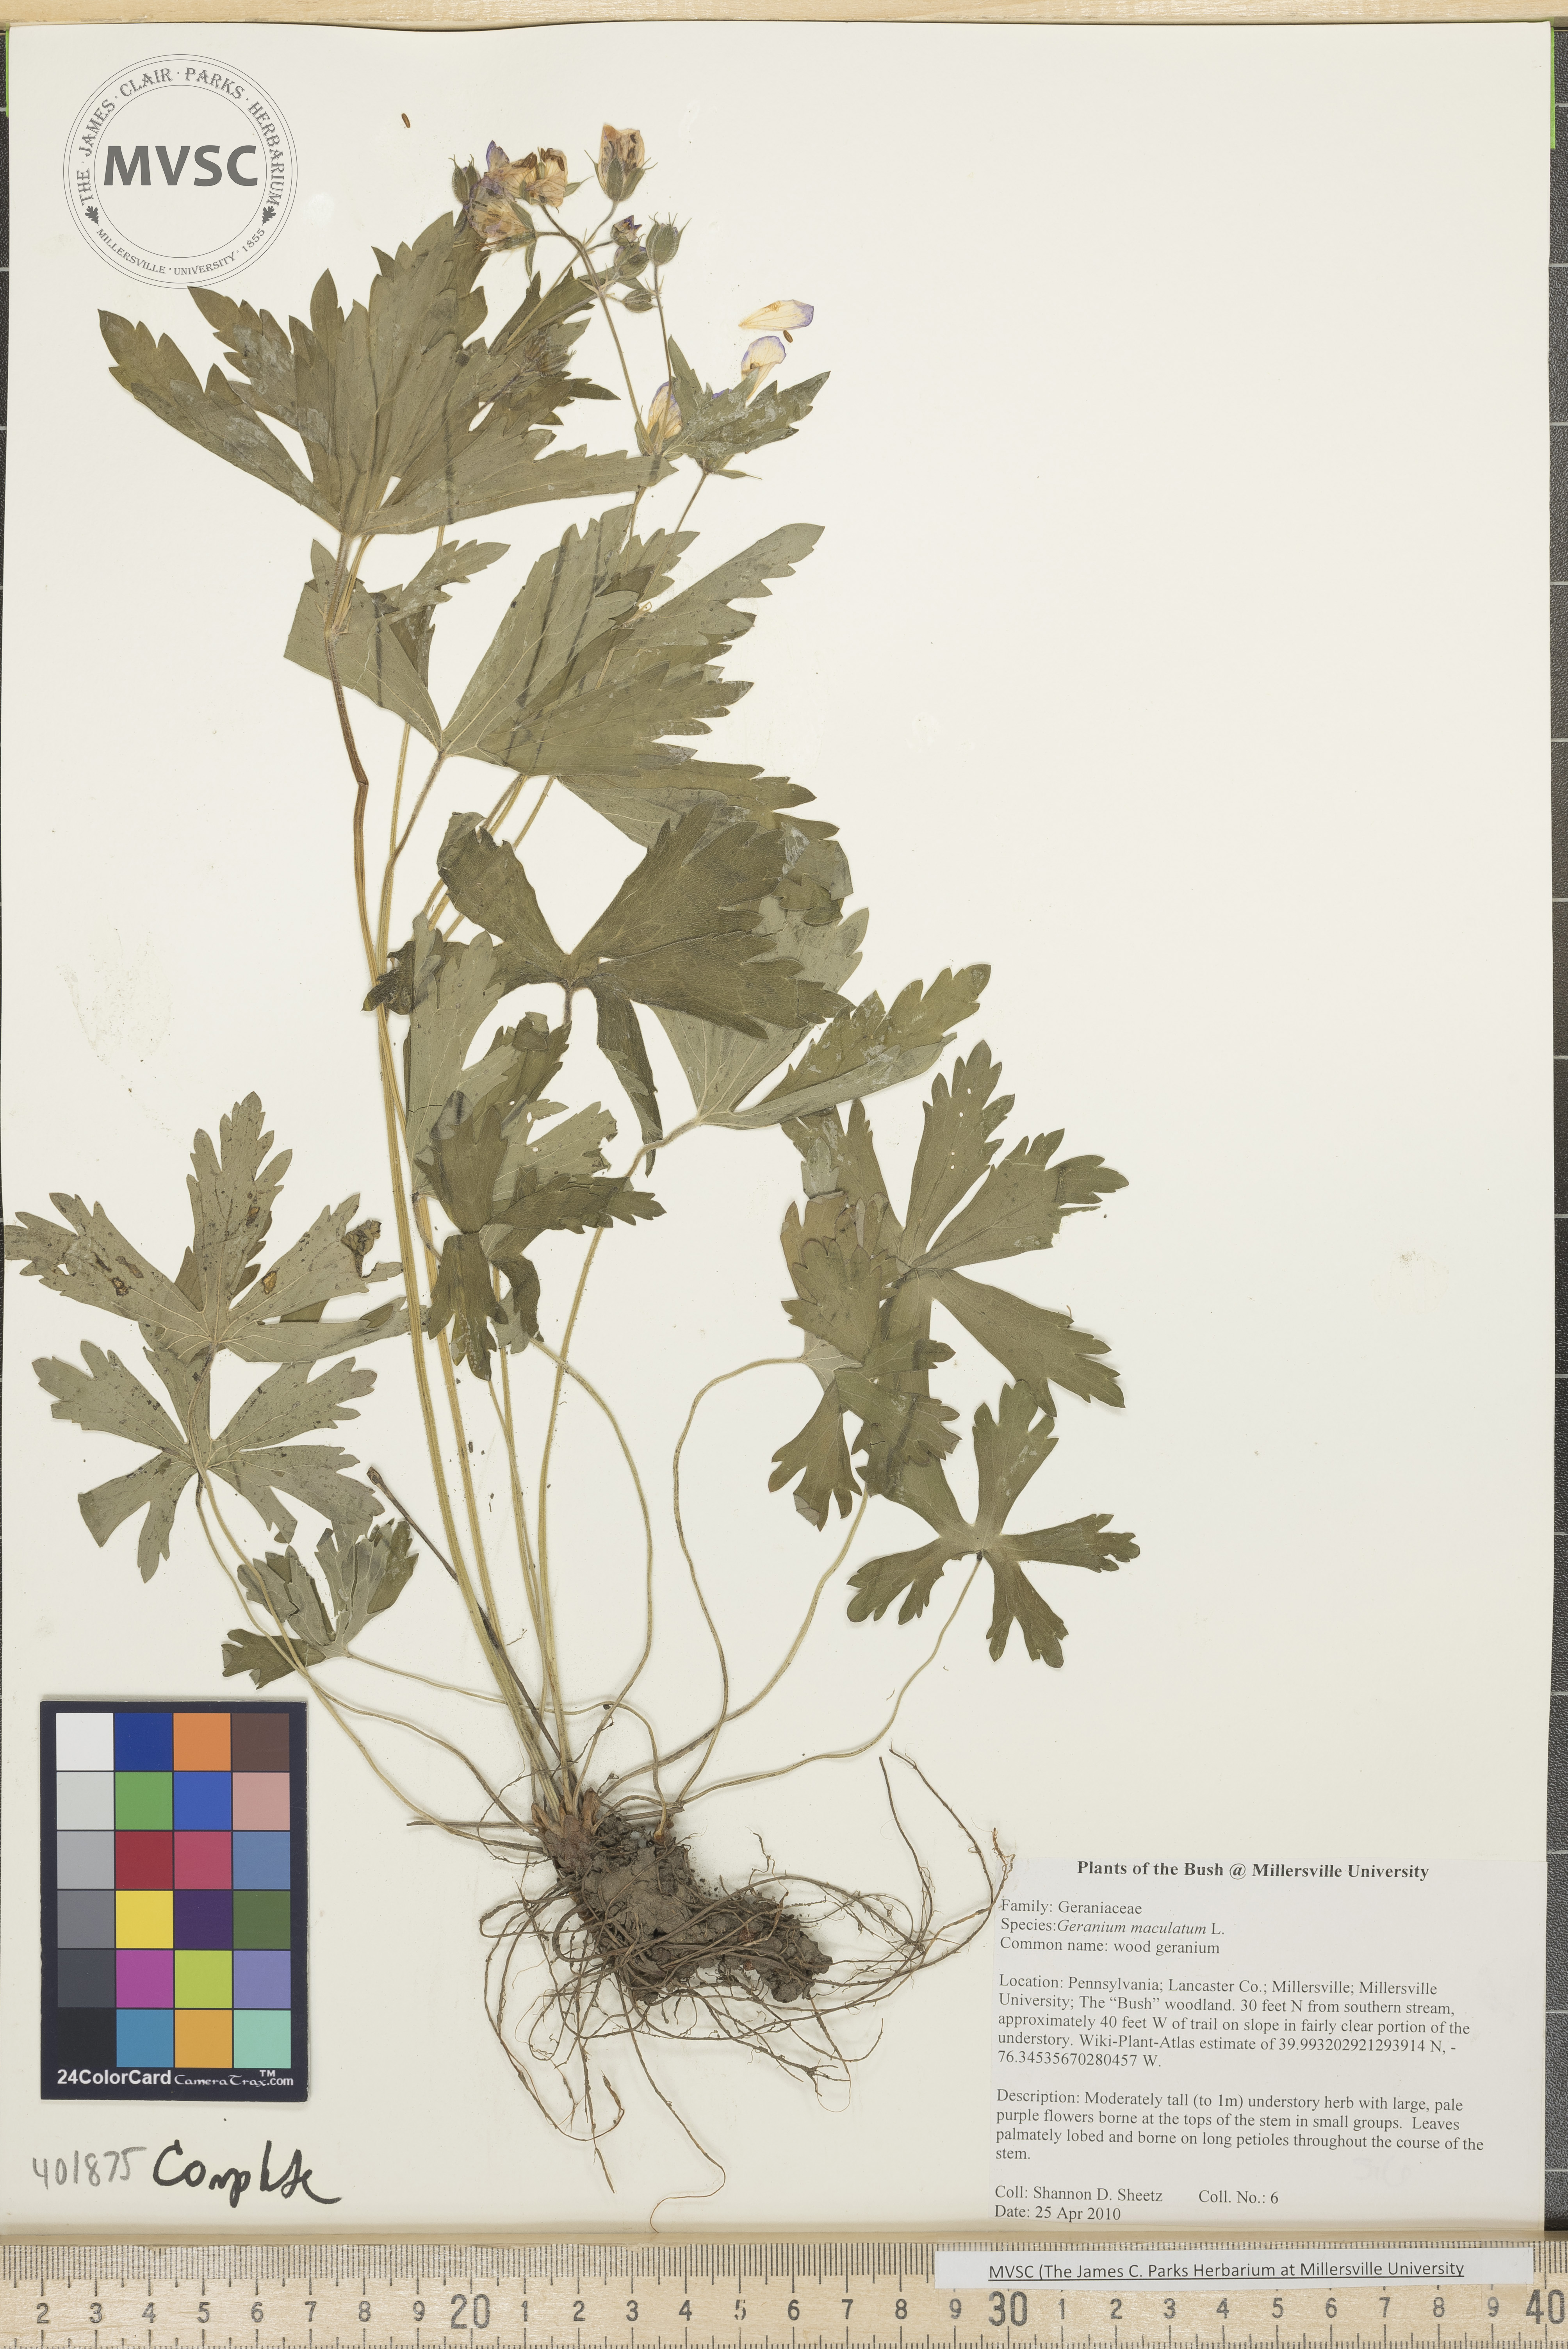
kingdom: Plantae
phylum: Tracheophyta
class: Magnoliopsida
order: Geraniales
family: Geraniaceae
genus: Geranium
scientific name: Geranium maculatum
